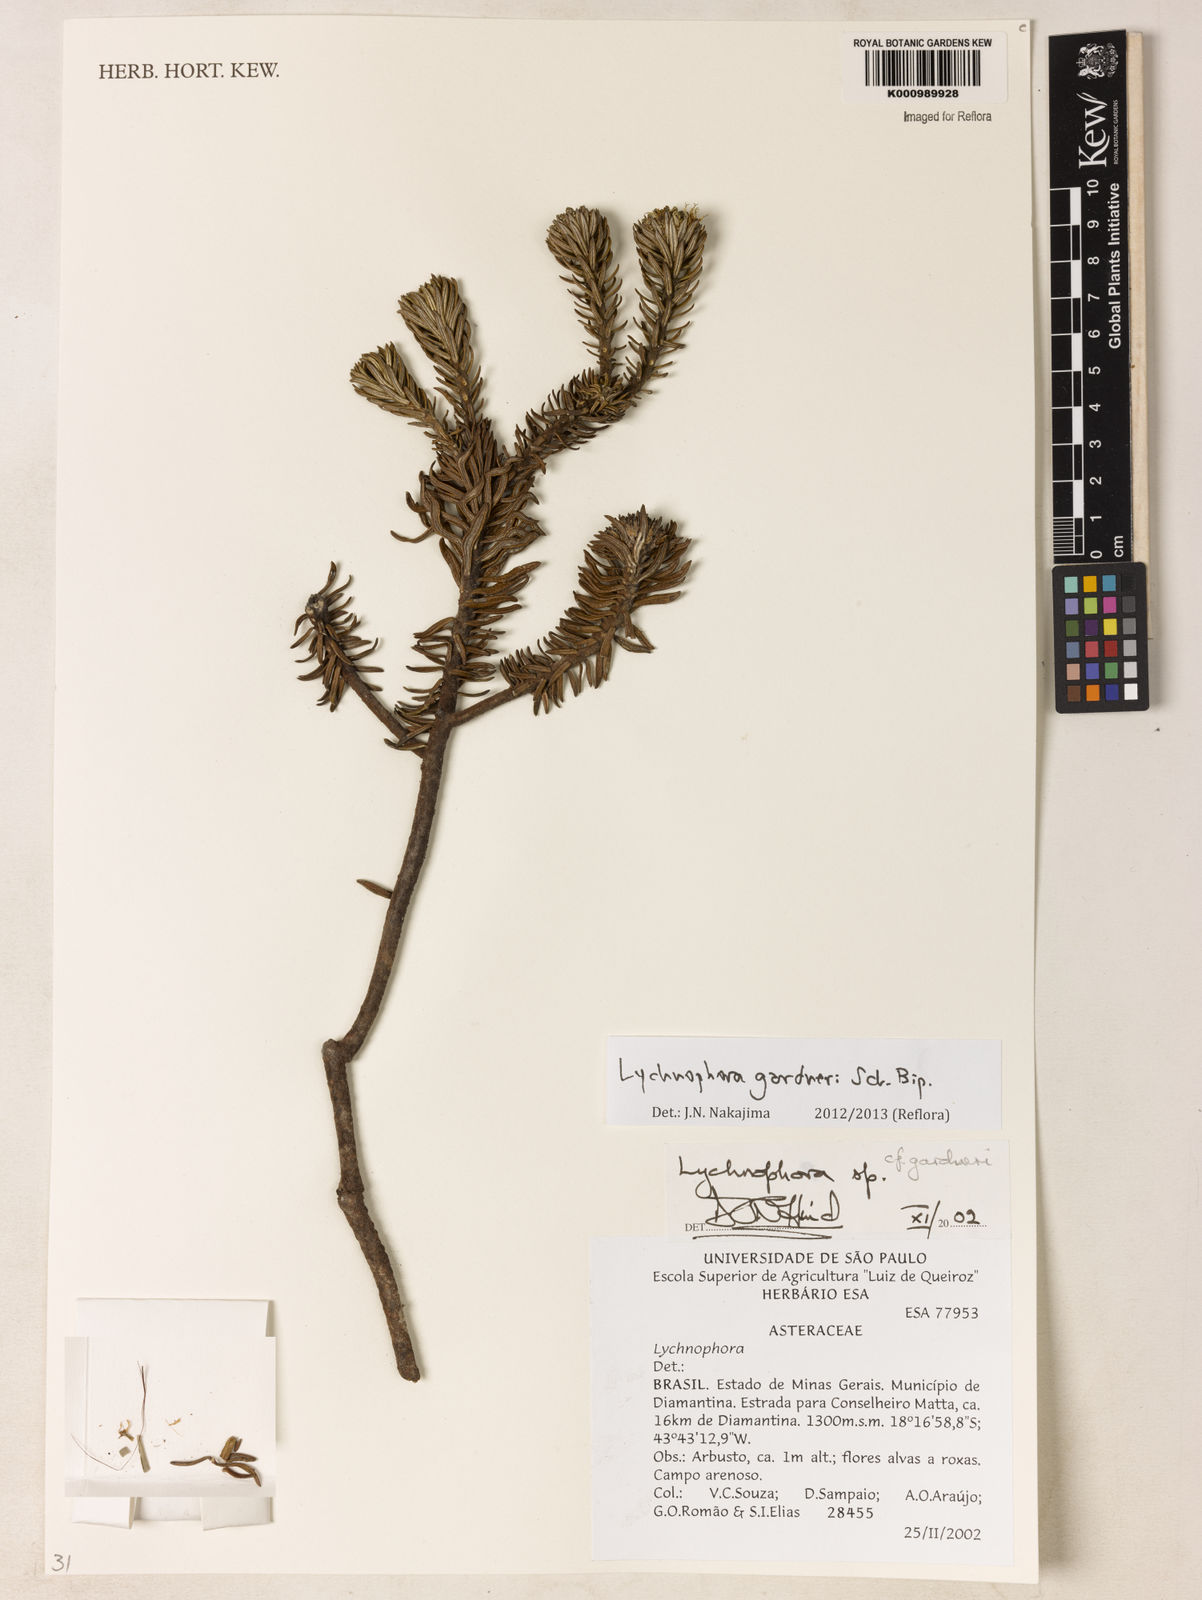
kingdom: Plantae
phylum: Tracheophyta
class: Magnoliopsida
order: Asterales
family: Asteraceae
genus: Lychnophora
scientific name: Lychnophora gardneri
